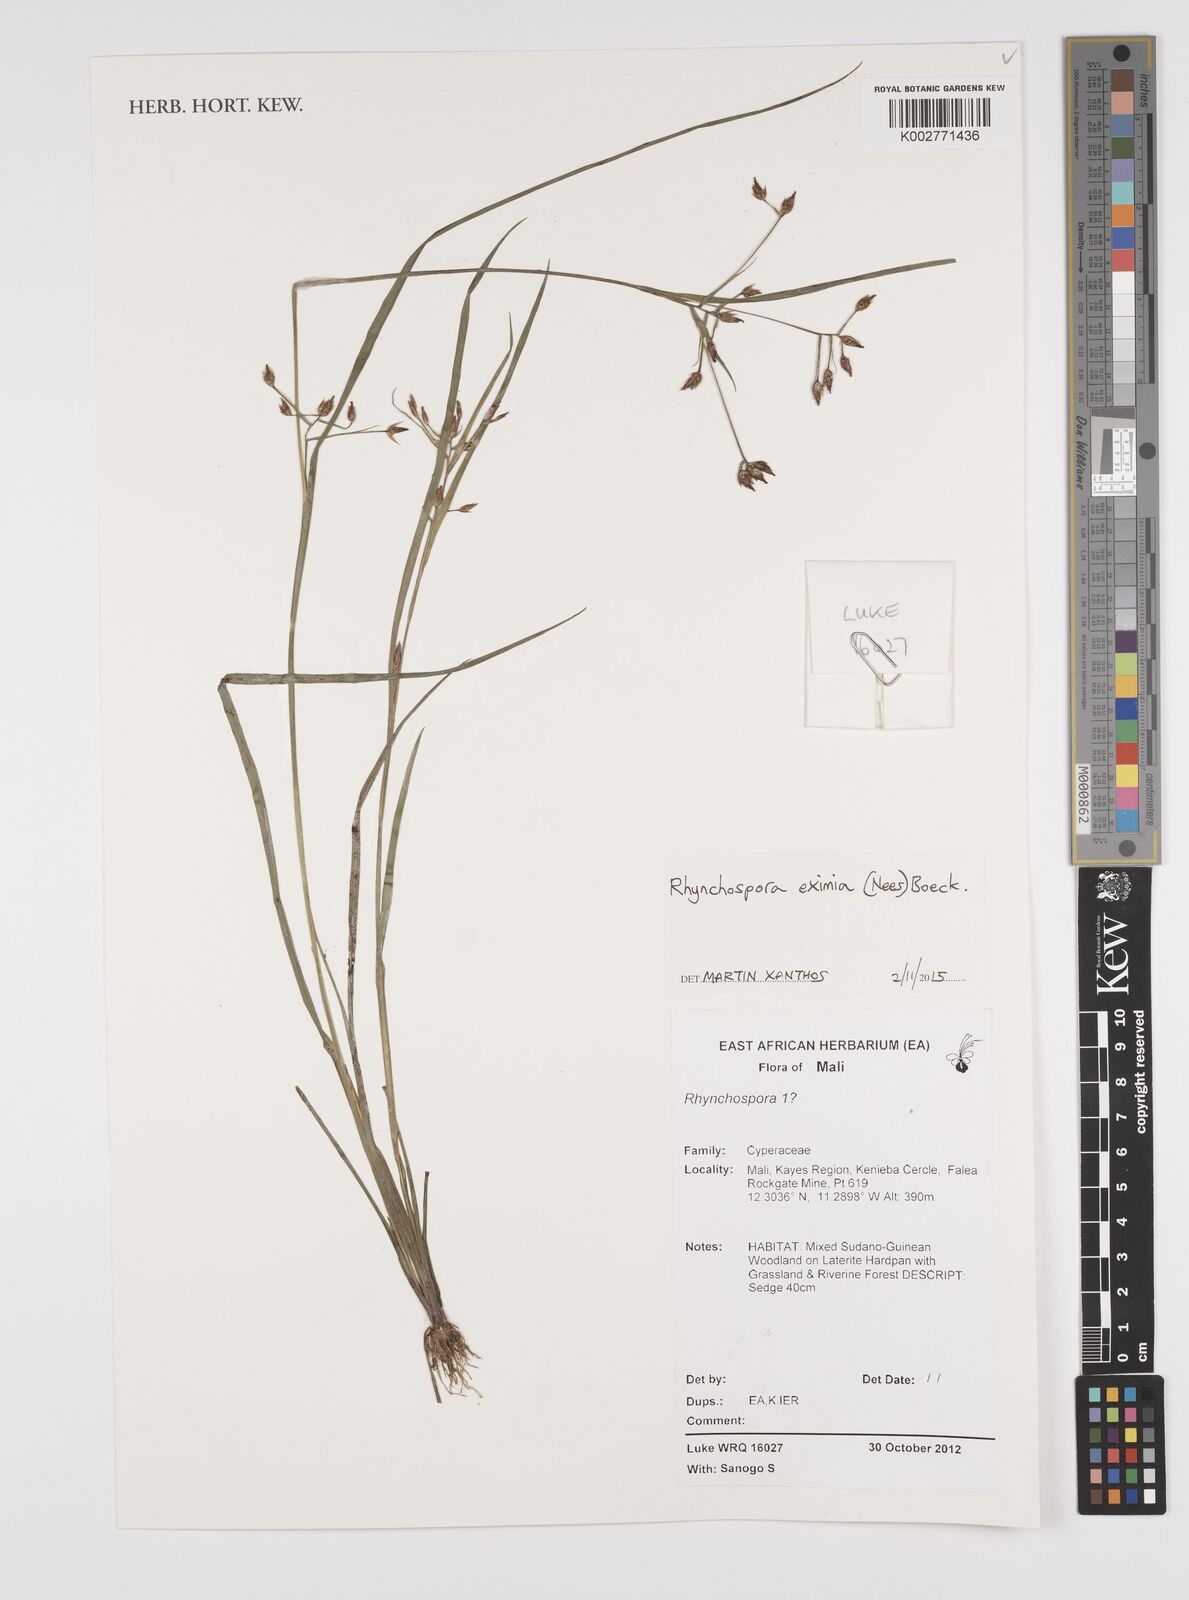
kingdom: Plantae
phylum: Tracheophyta
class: Liliopsida
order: Poales
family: Cyperaceae
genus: Rhynchospora
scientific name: Rhynchospora eximia
